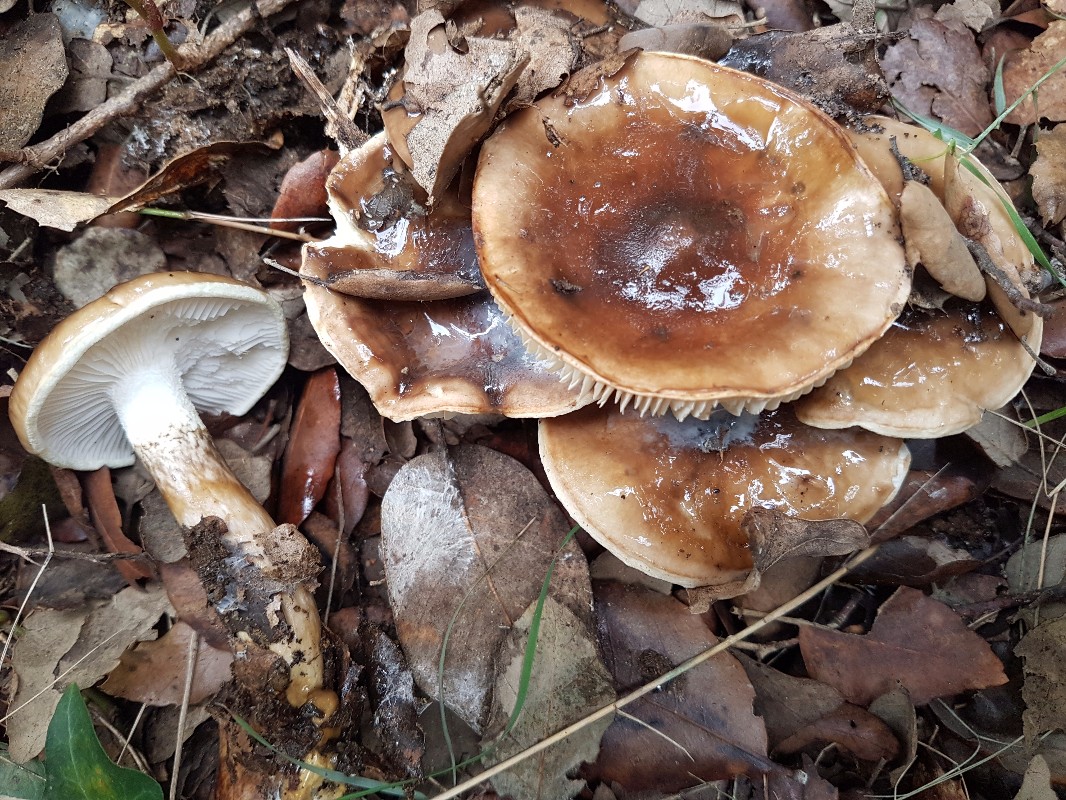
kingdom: Fungi
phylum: Basidiomycota
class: Agaricomycetes
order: Agaricales
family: Hygrophoraceae
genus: Hygrophorus
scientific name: Hygrophorus glutinifer
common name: tvefarvet sneglehat
